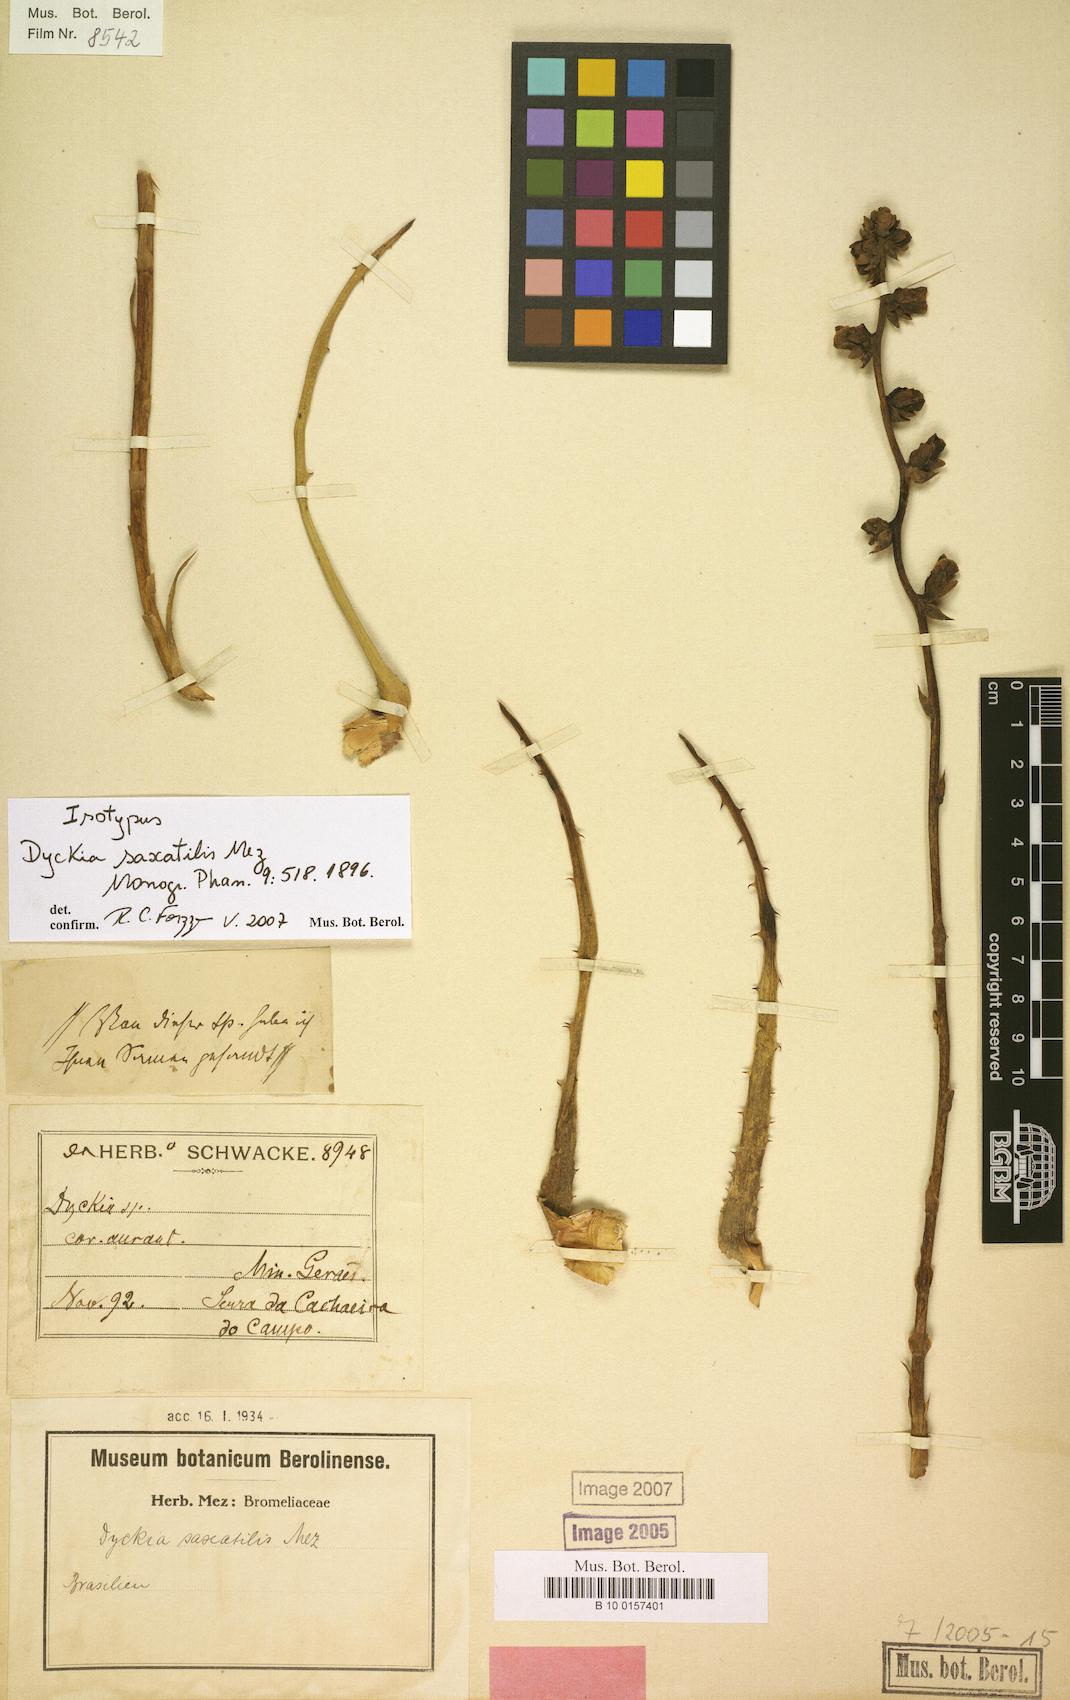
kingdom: Plantae
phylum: Tracheophyta
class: Liliopsida
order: Poales
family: Bromeliaceae
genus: Dyckia
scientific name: Dyckia saxatilis
